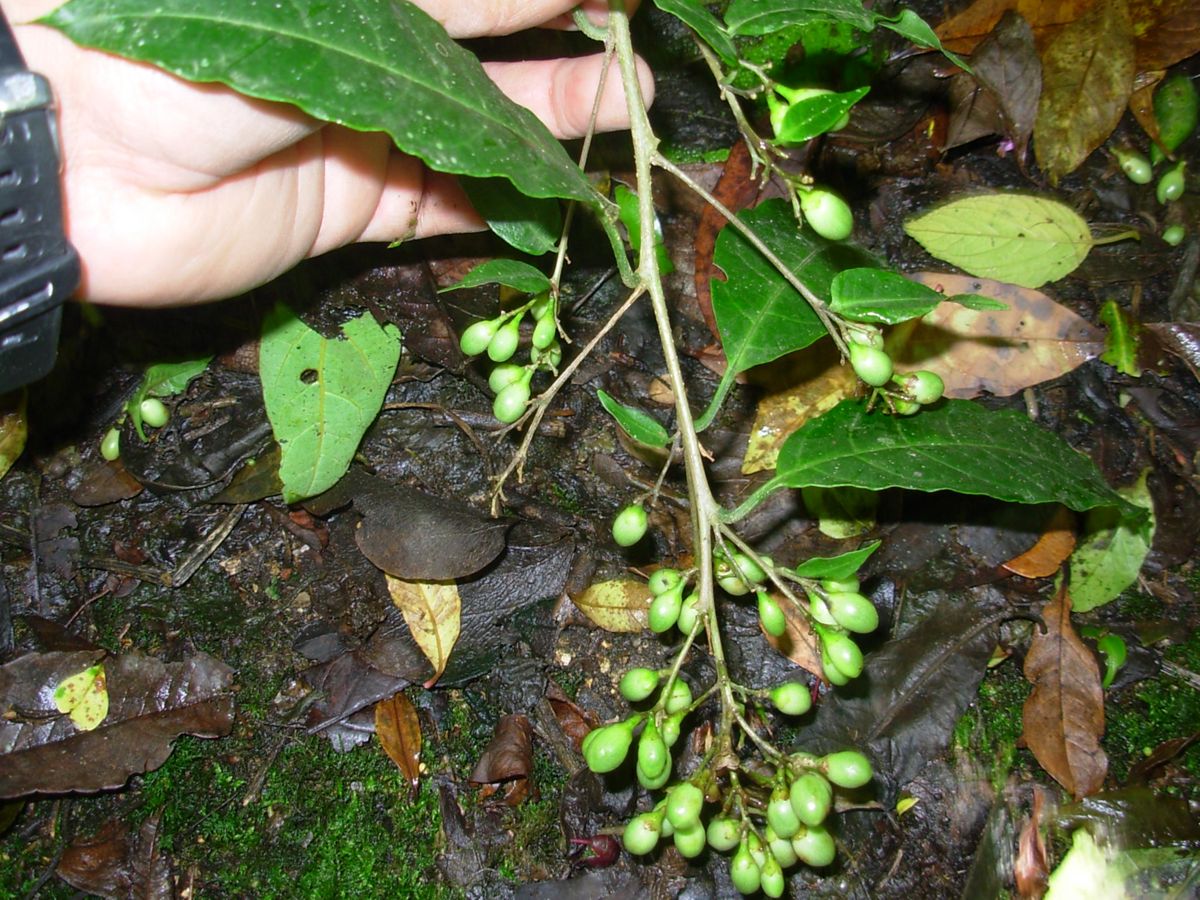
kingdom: Plantae
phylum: Tracheophyta
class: Magnoliopsida
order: Solanales
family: Solanaceae
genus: Cestrum
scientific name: Cestrum aurantiacum
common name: Orange cestrum
